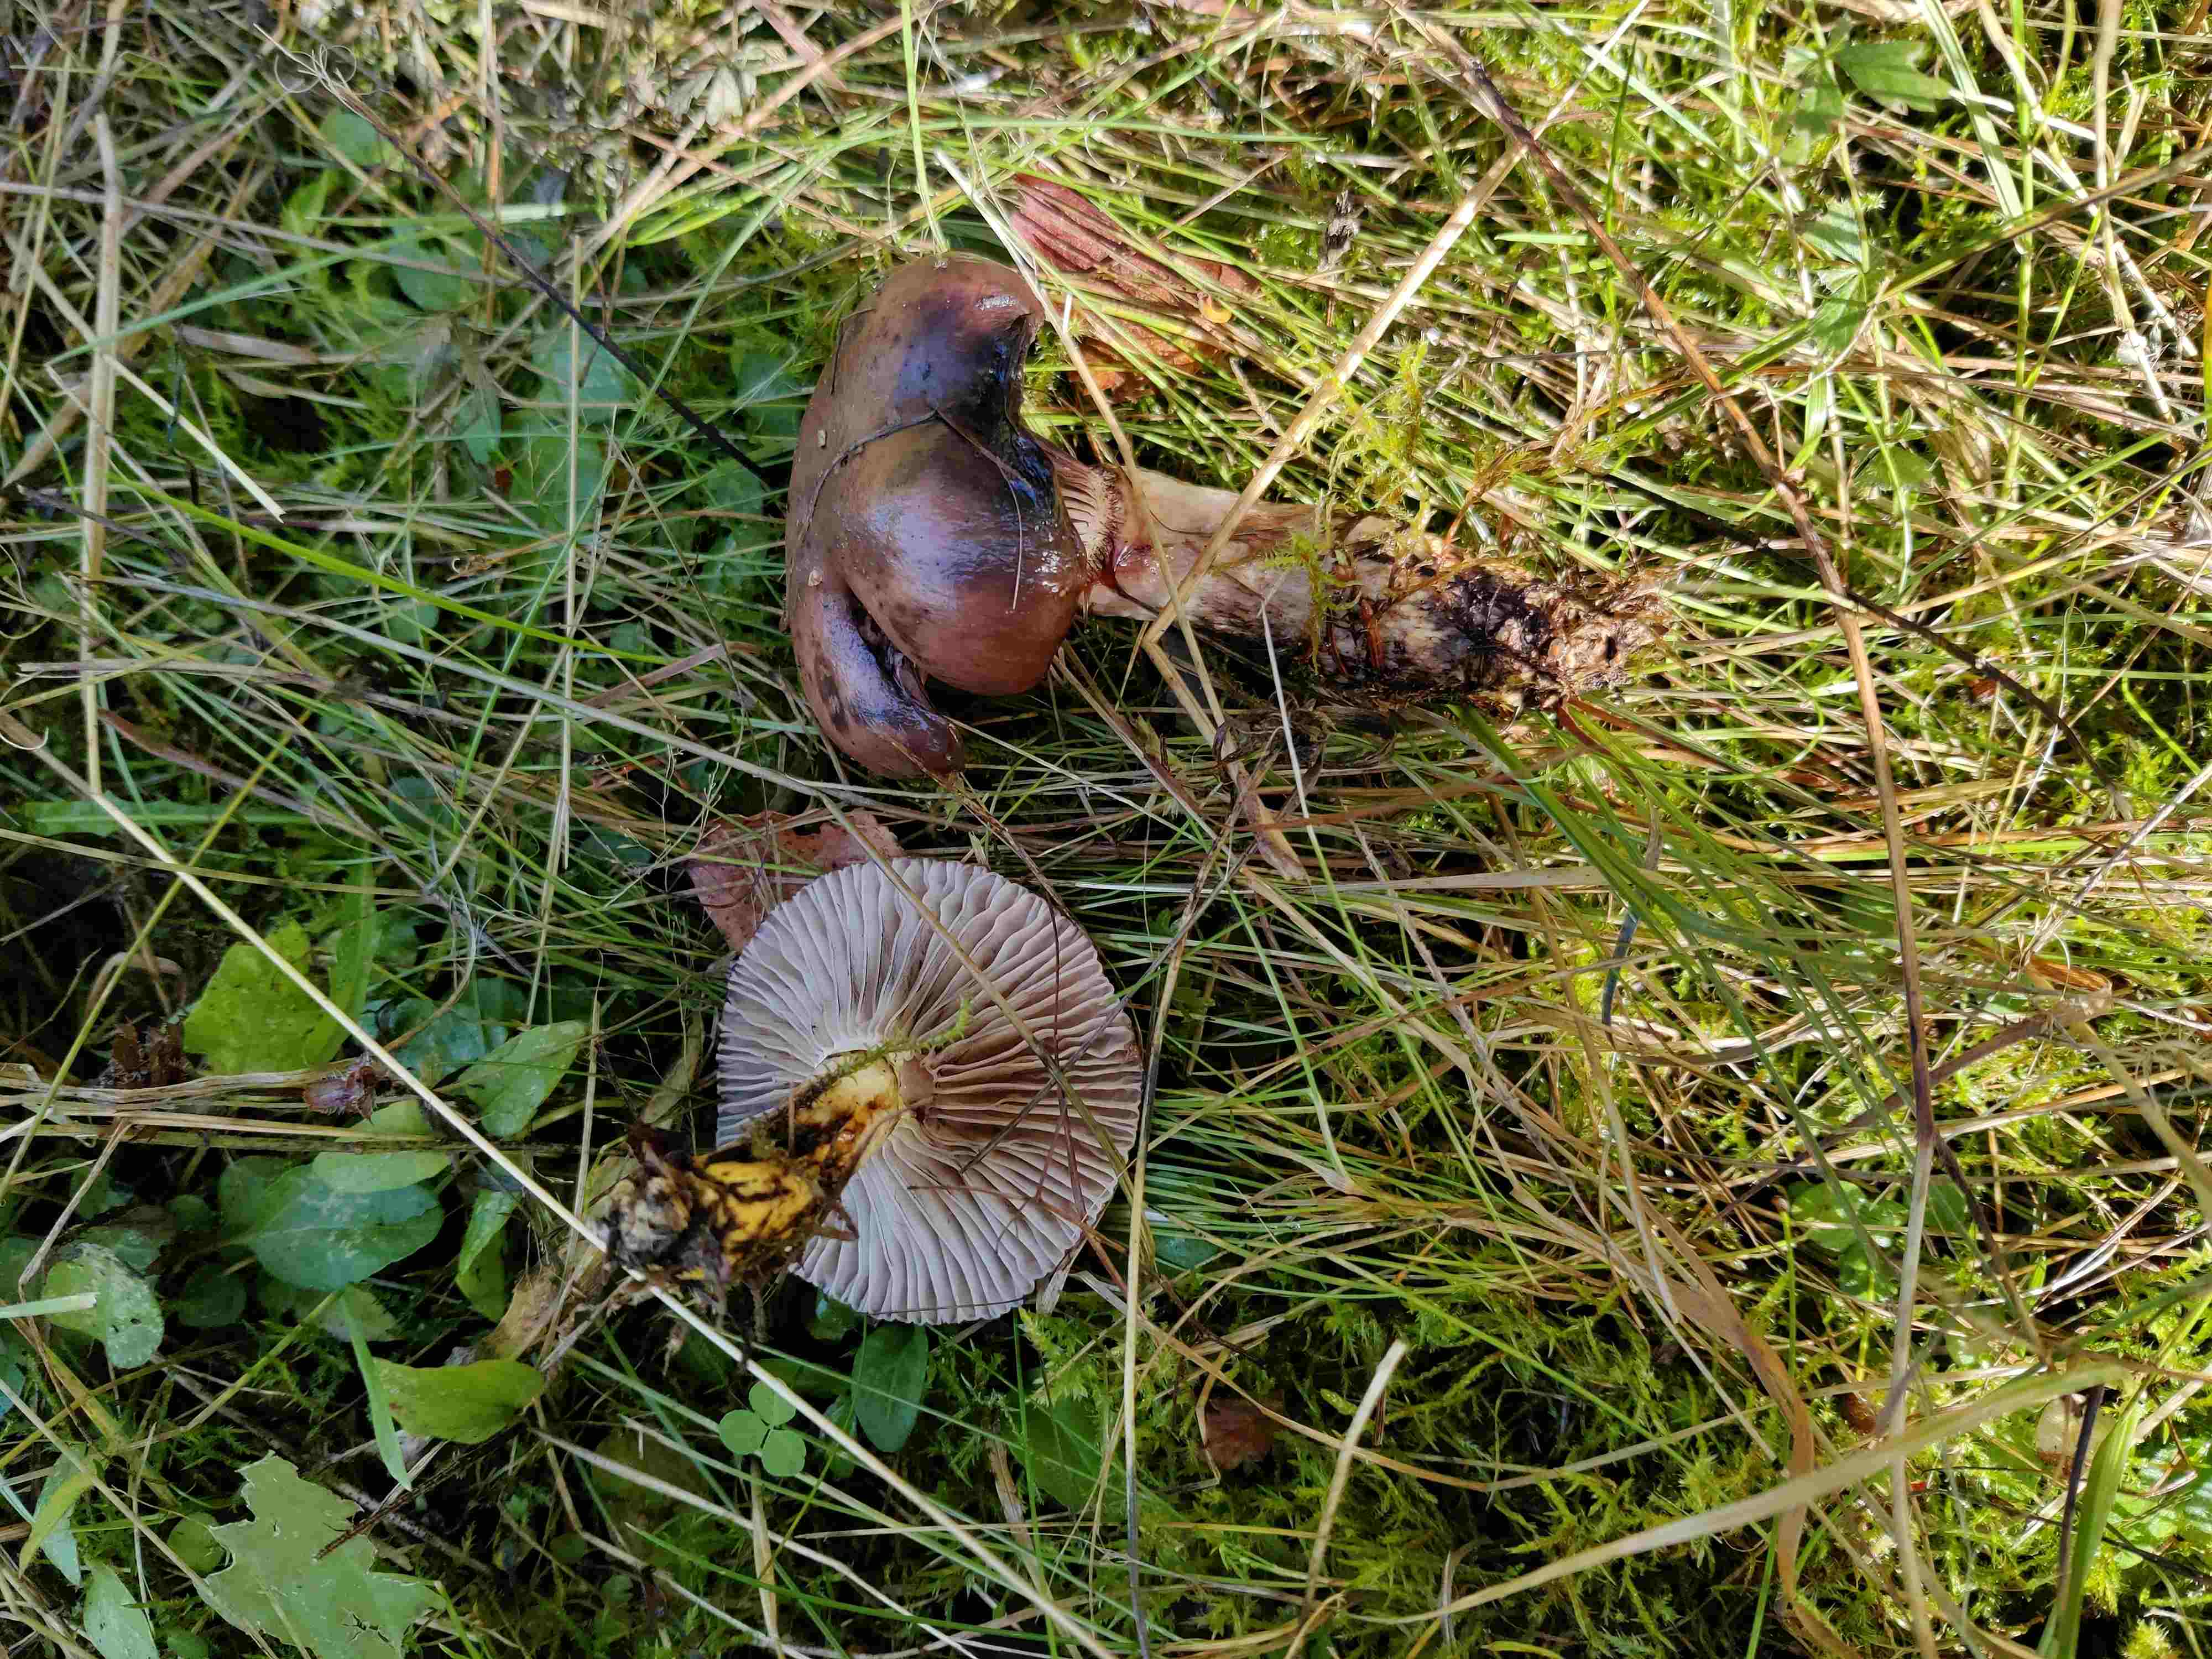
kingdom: Fungi
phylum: Basidiomycota
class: Agaricomycetes
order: Boletales
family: Gomphidiaceae
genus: Gomphidius
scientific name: Gomphidius glutinosus
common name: grå slimslør
